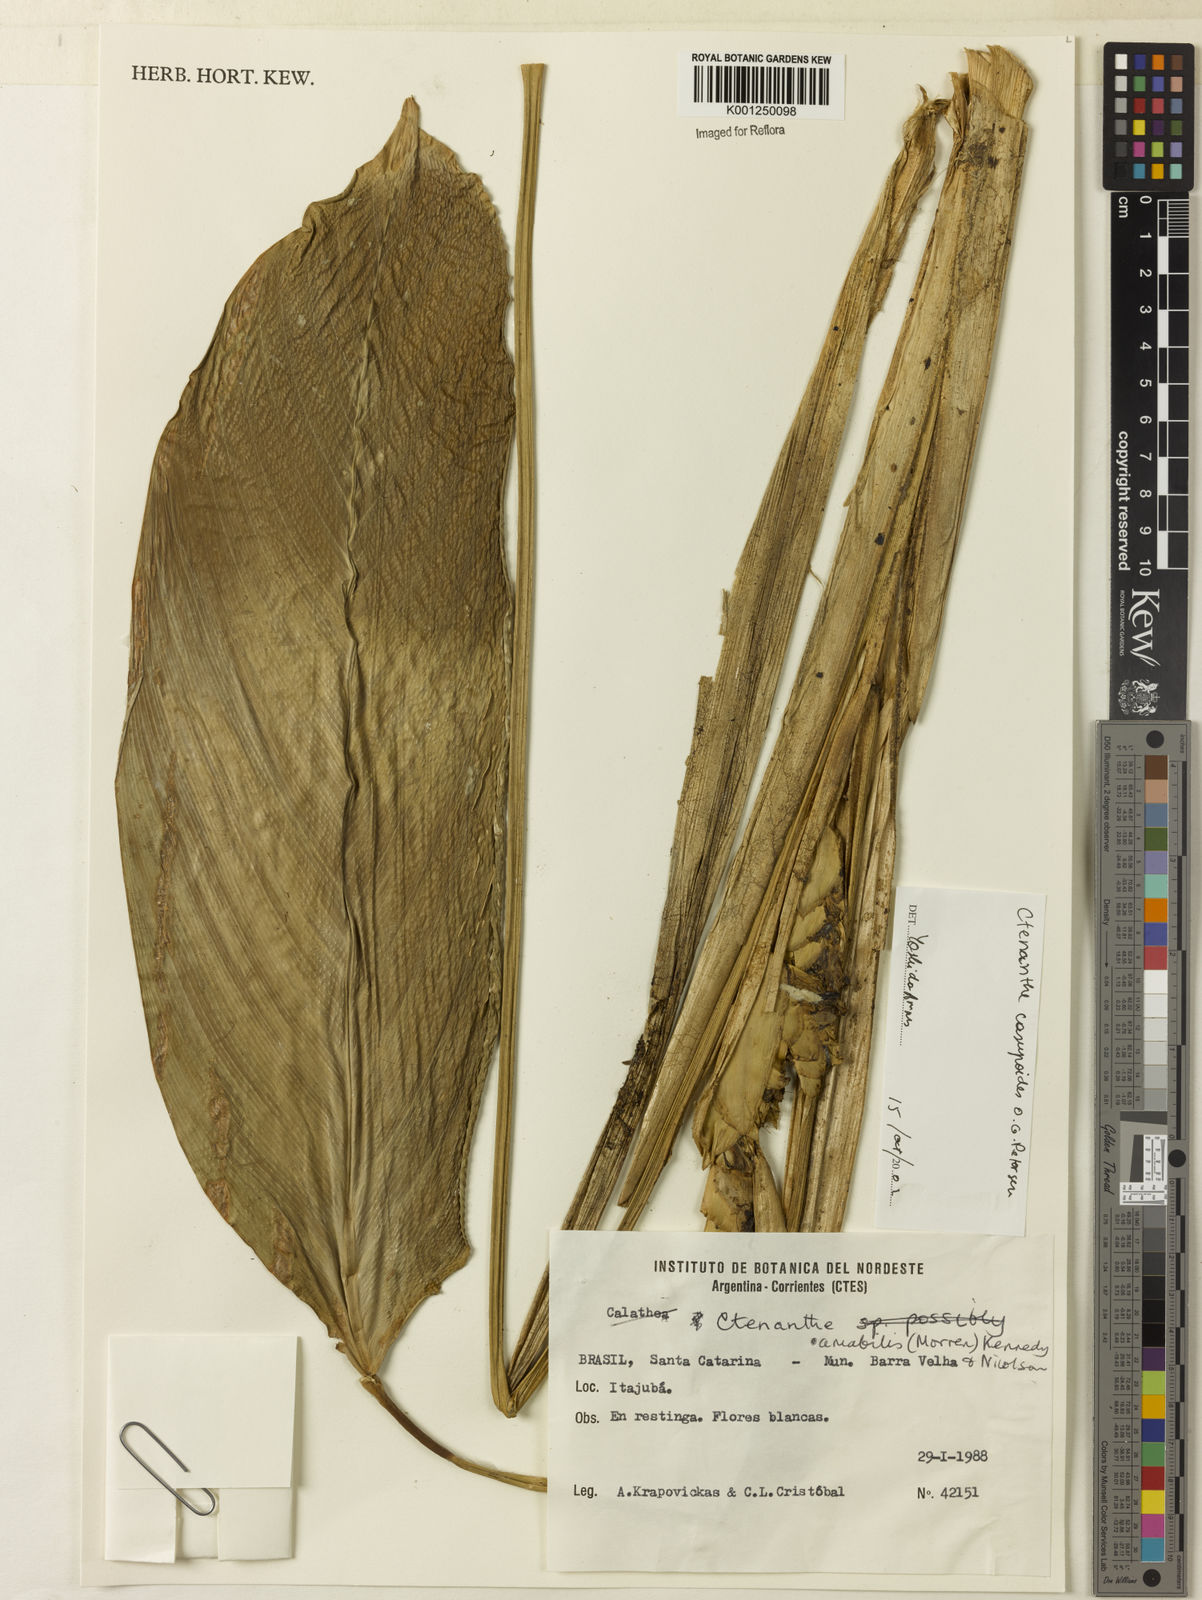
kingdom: Plantae
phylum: Tracheophyta
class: Liliopsida
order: Zingiberales
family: Marantaceae
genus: Ctenanthe
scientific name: Ctenanthe casupoides
